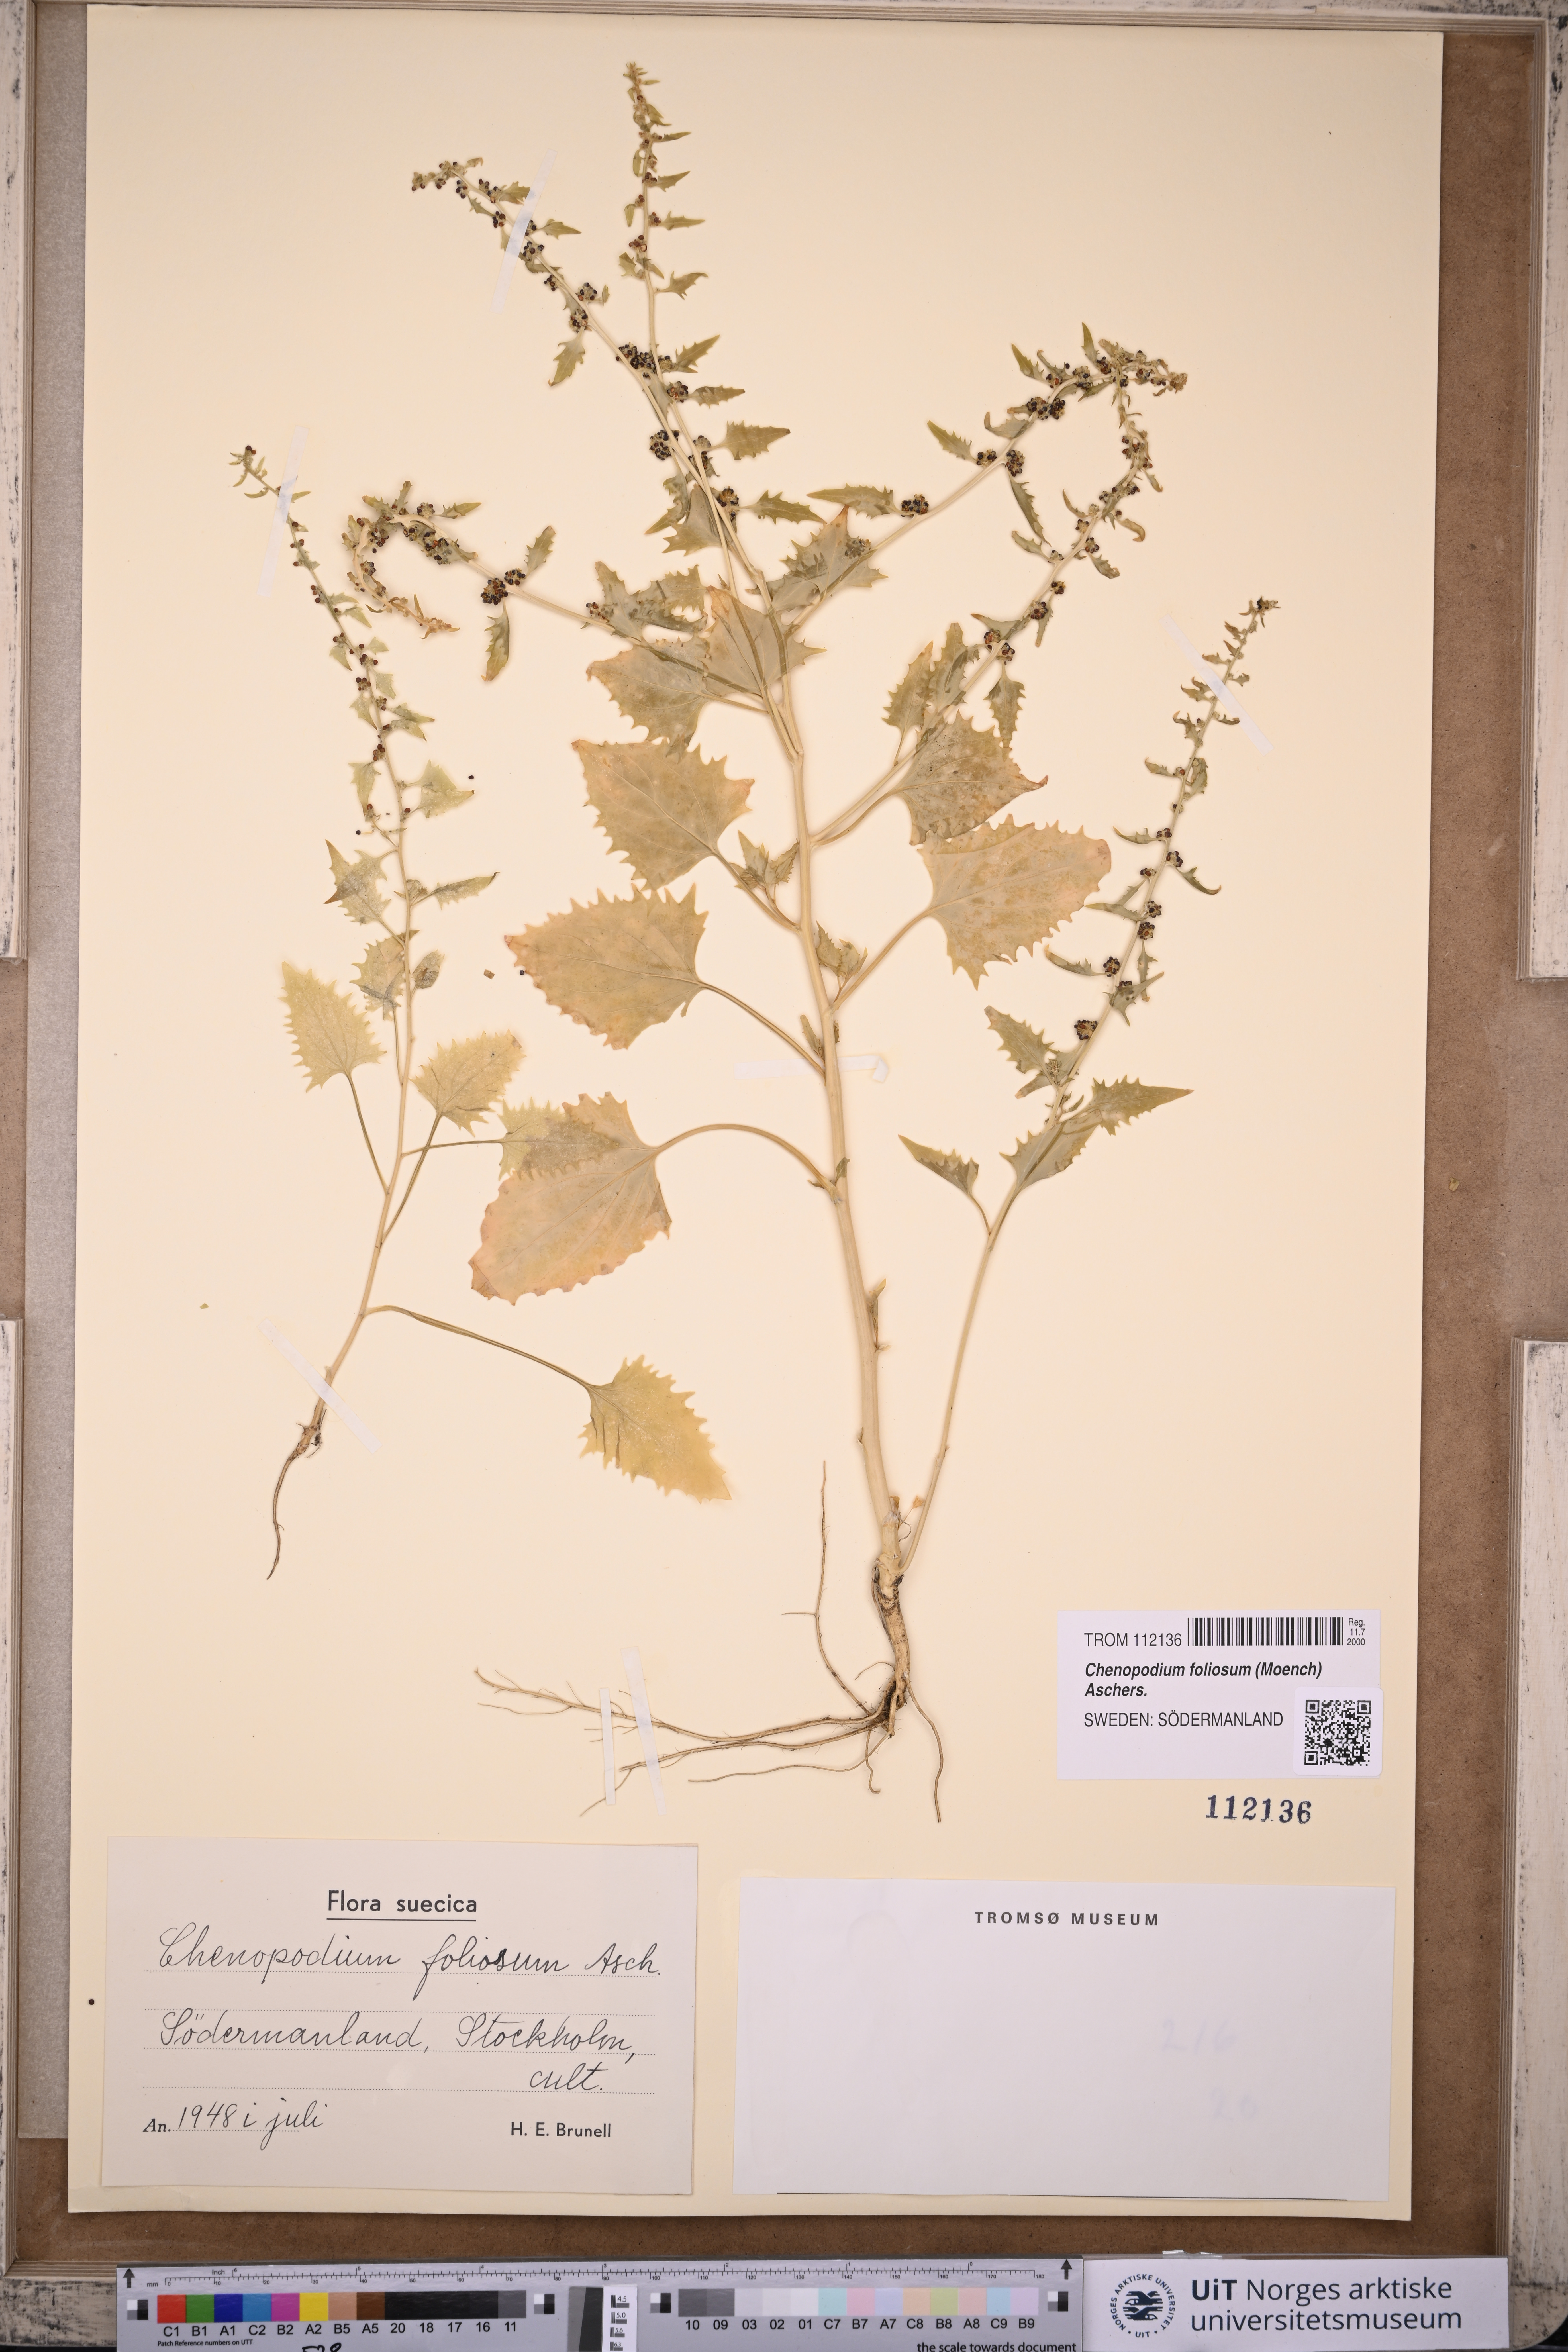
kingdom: Plantae
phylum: Tracheophyta
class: Magnoliopsida
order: Caryophyllales
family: Amaranthaceae
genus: Blitum
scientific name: Blitum virgatum
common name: Strawberry goosefoot
